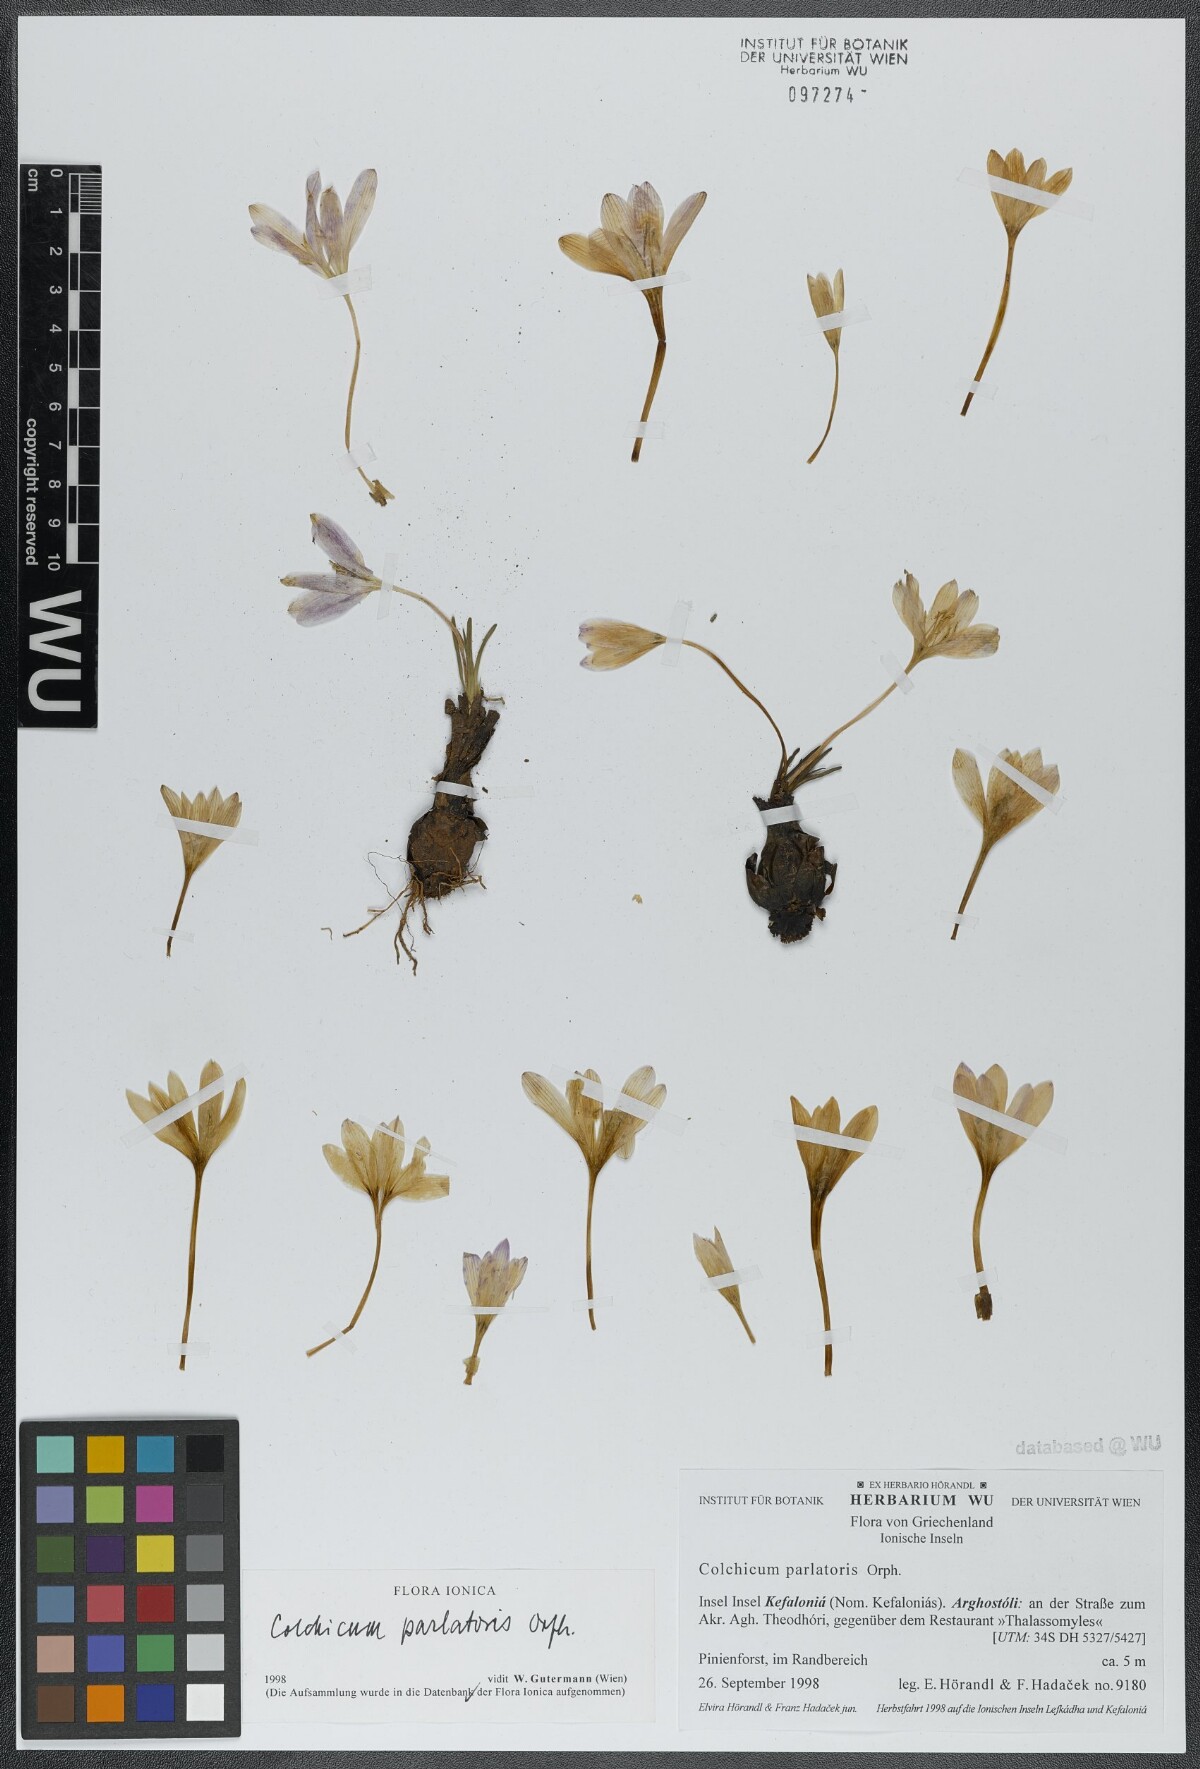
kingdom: Plantae
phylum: Tracheophyta
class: Liliopsida
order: Liliales
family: Colchicaceae
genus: Colchicum
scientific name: Colchicum parlatoris
